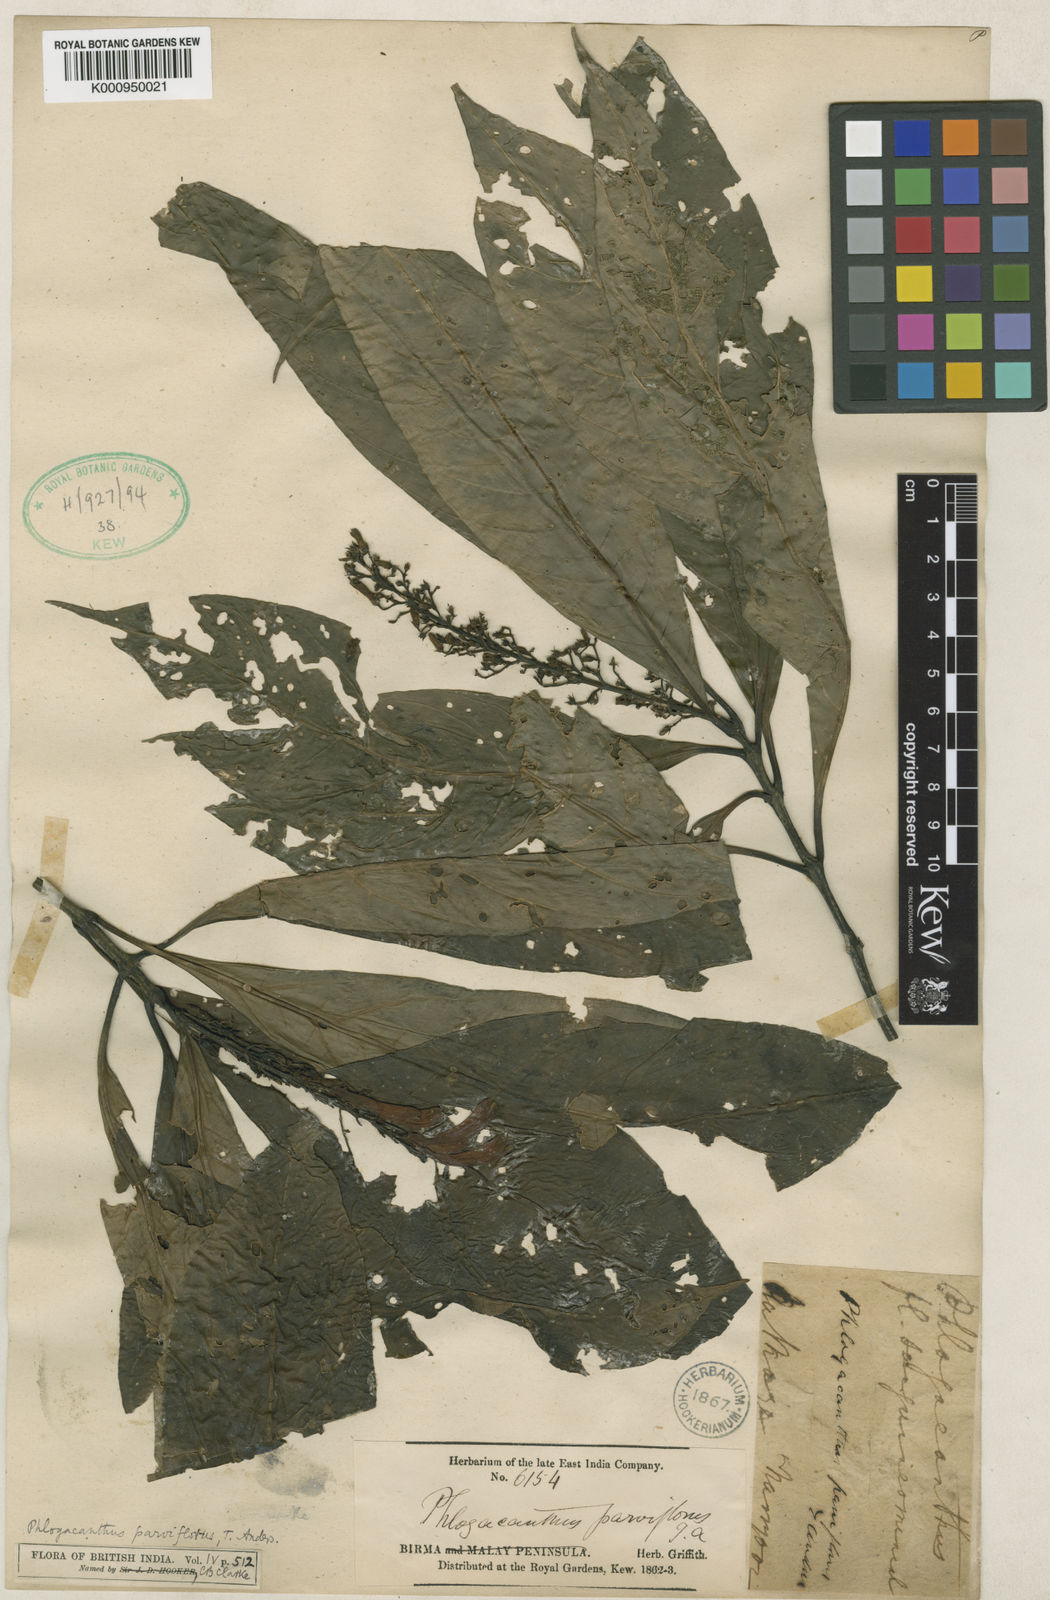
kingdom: Plantae
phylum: Tracheophyta
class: Magnoliopsida
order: Lamiales
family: Acanthaceae
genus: Phlogacanthus
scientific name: Phlogacanthus parviflorus
